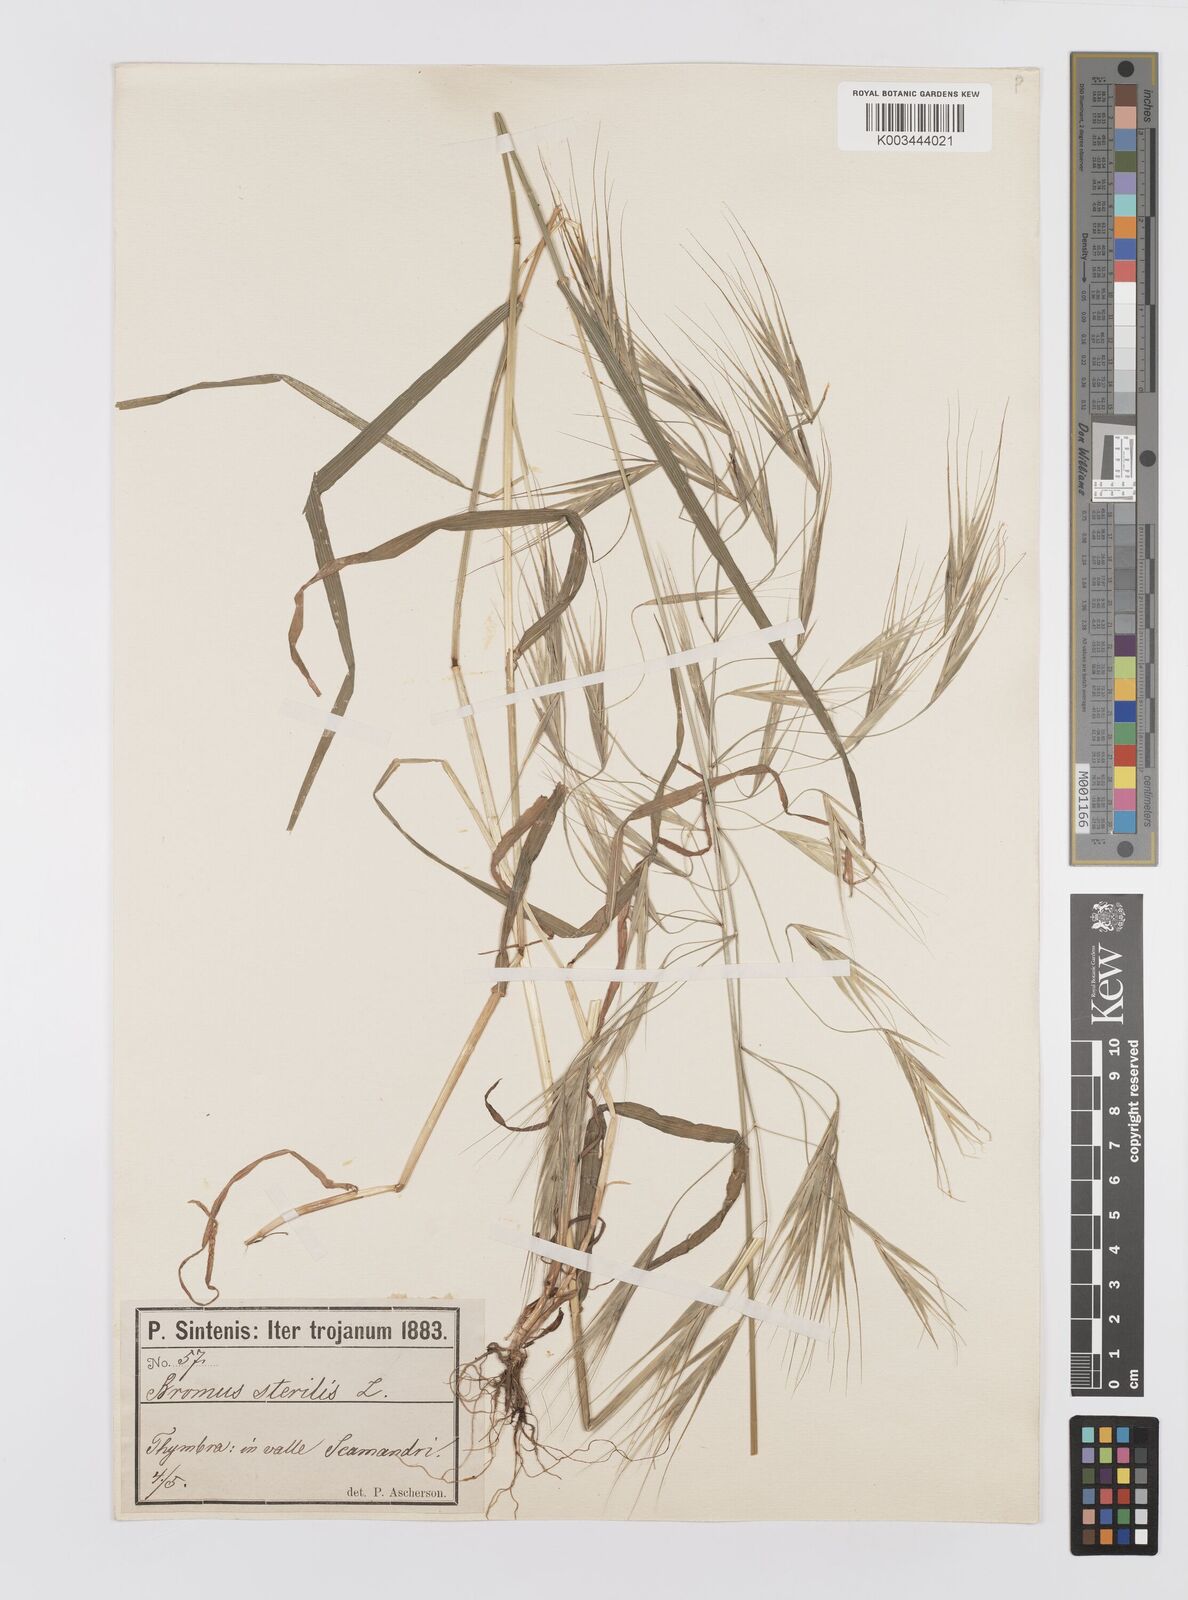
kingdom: Plantae
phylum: Tracheophyta
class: Liliopsida
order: Poales
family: Poaceae
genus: Bromus
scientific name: Bromus sterilis
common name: Poverty brome
